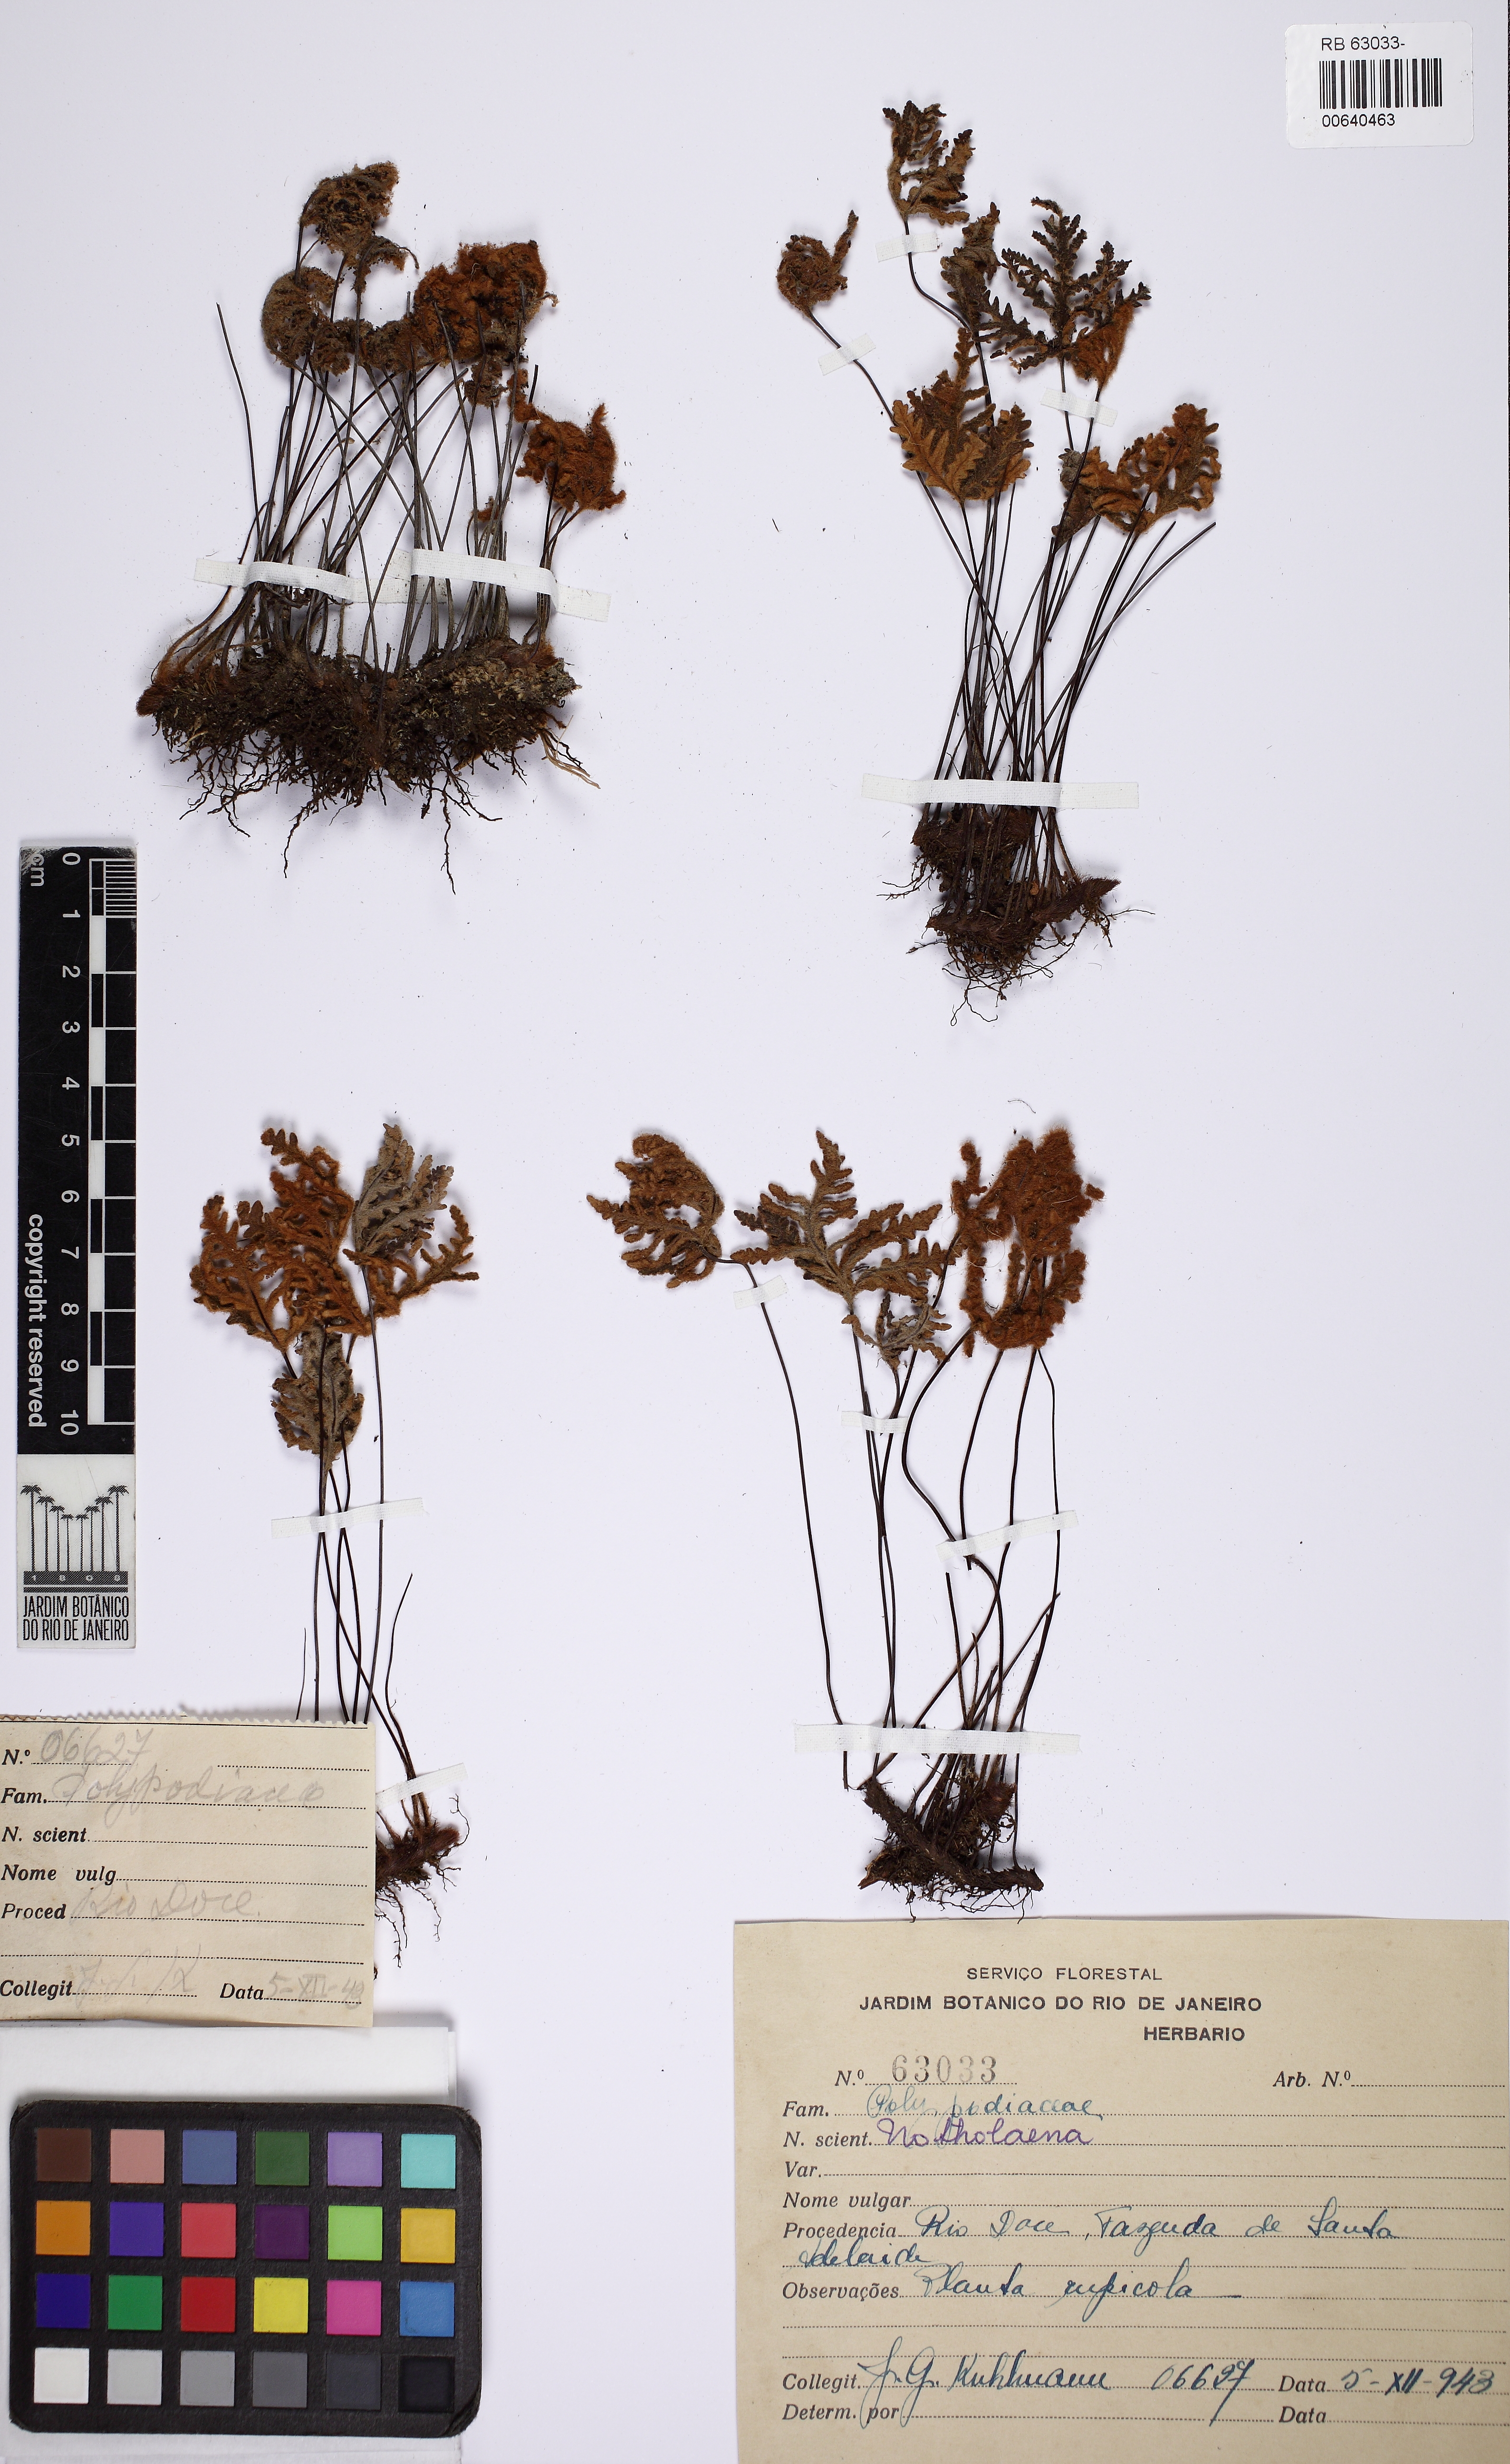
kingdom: Plantae
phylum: Tracheophyta
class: Polypodiopsida
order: Polypodiales
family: Pteridaceae
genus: Mineirella
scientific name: Mineirella geraniifolia
